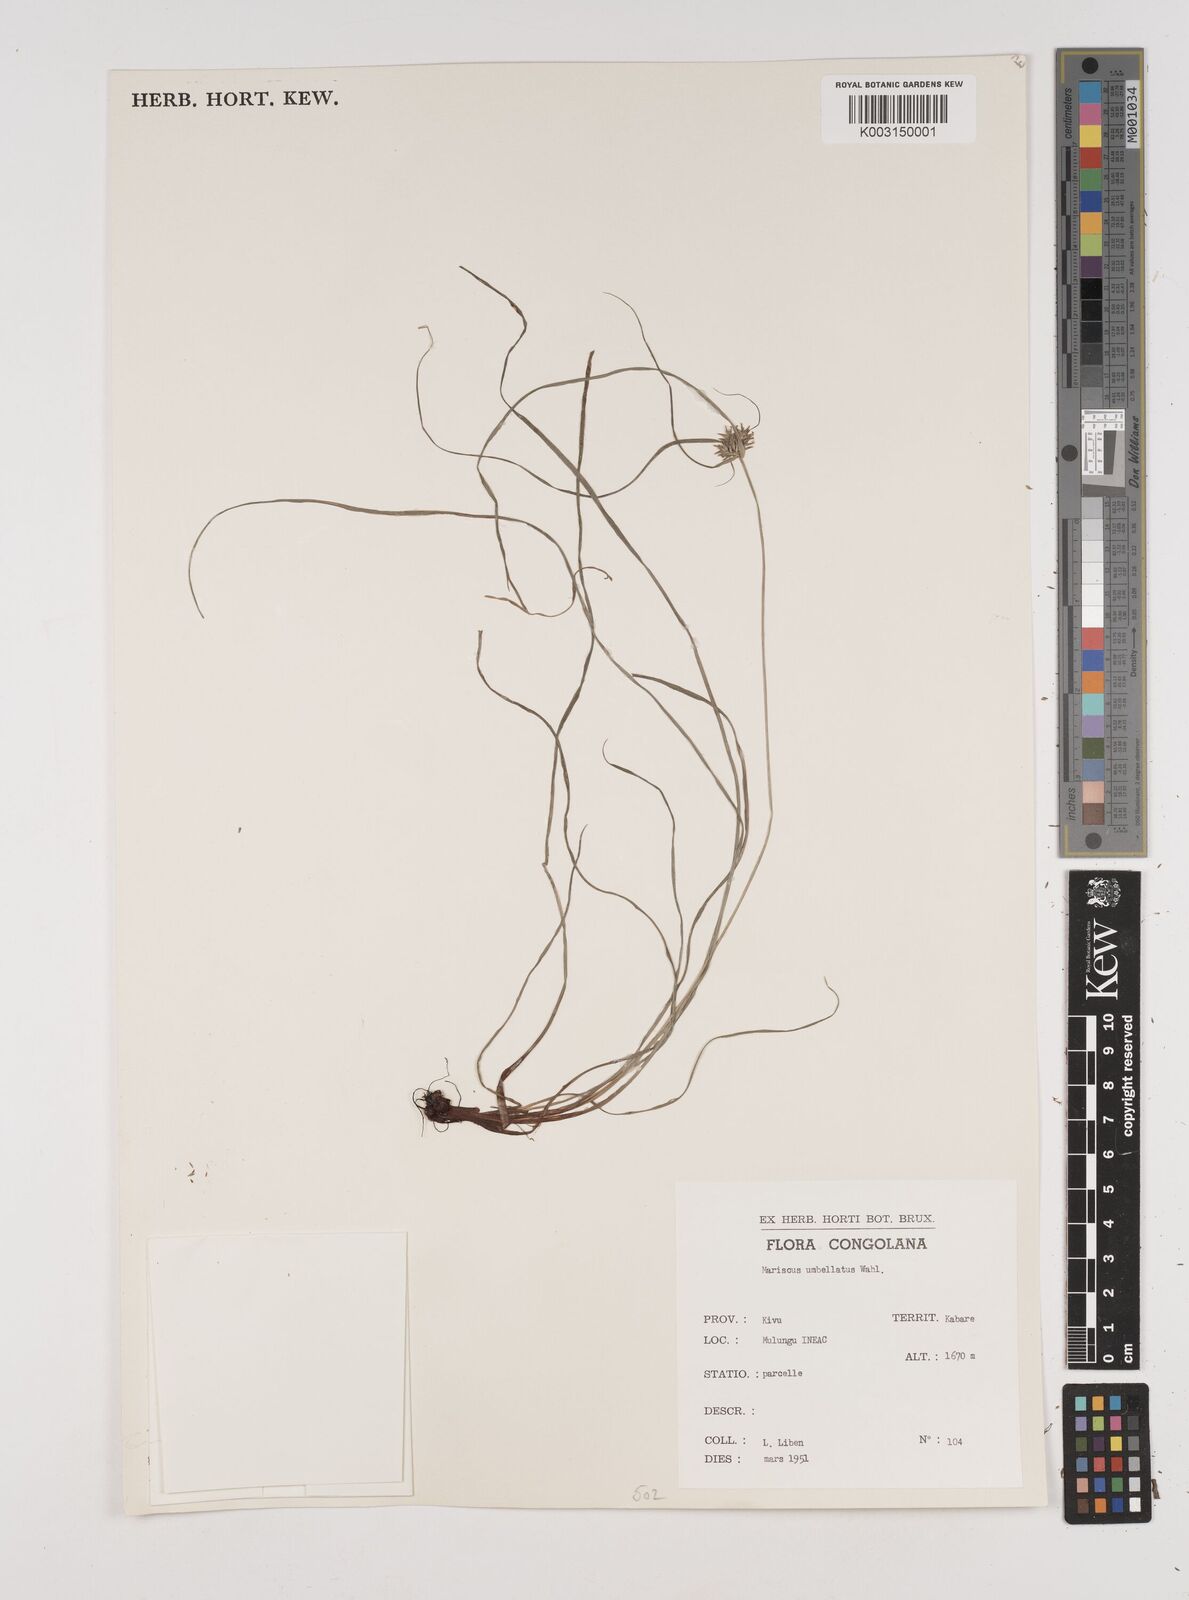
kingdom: Plantae
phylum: Tracheophyta
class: Liliopsida
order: Poales
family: Cyperaceae
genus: Cyperus
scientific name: Cyperus cyperoides
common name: Pacific island flat sedge
